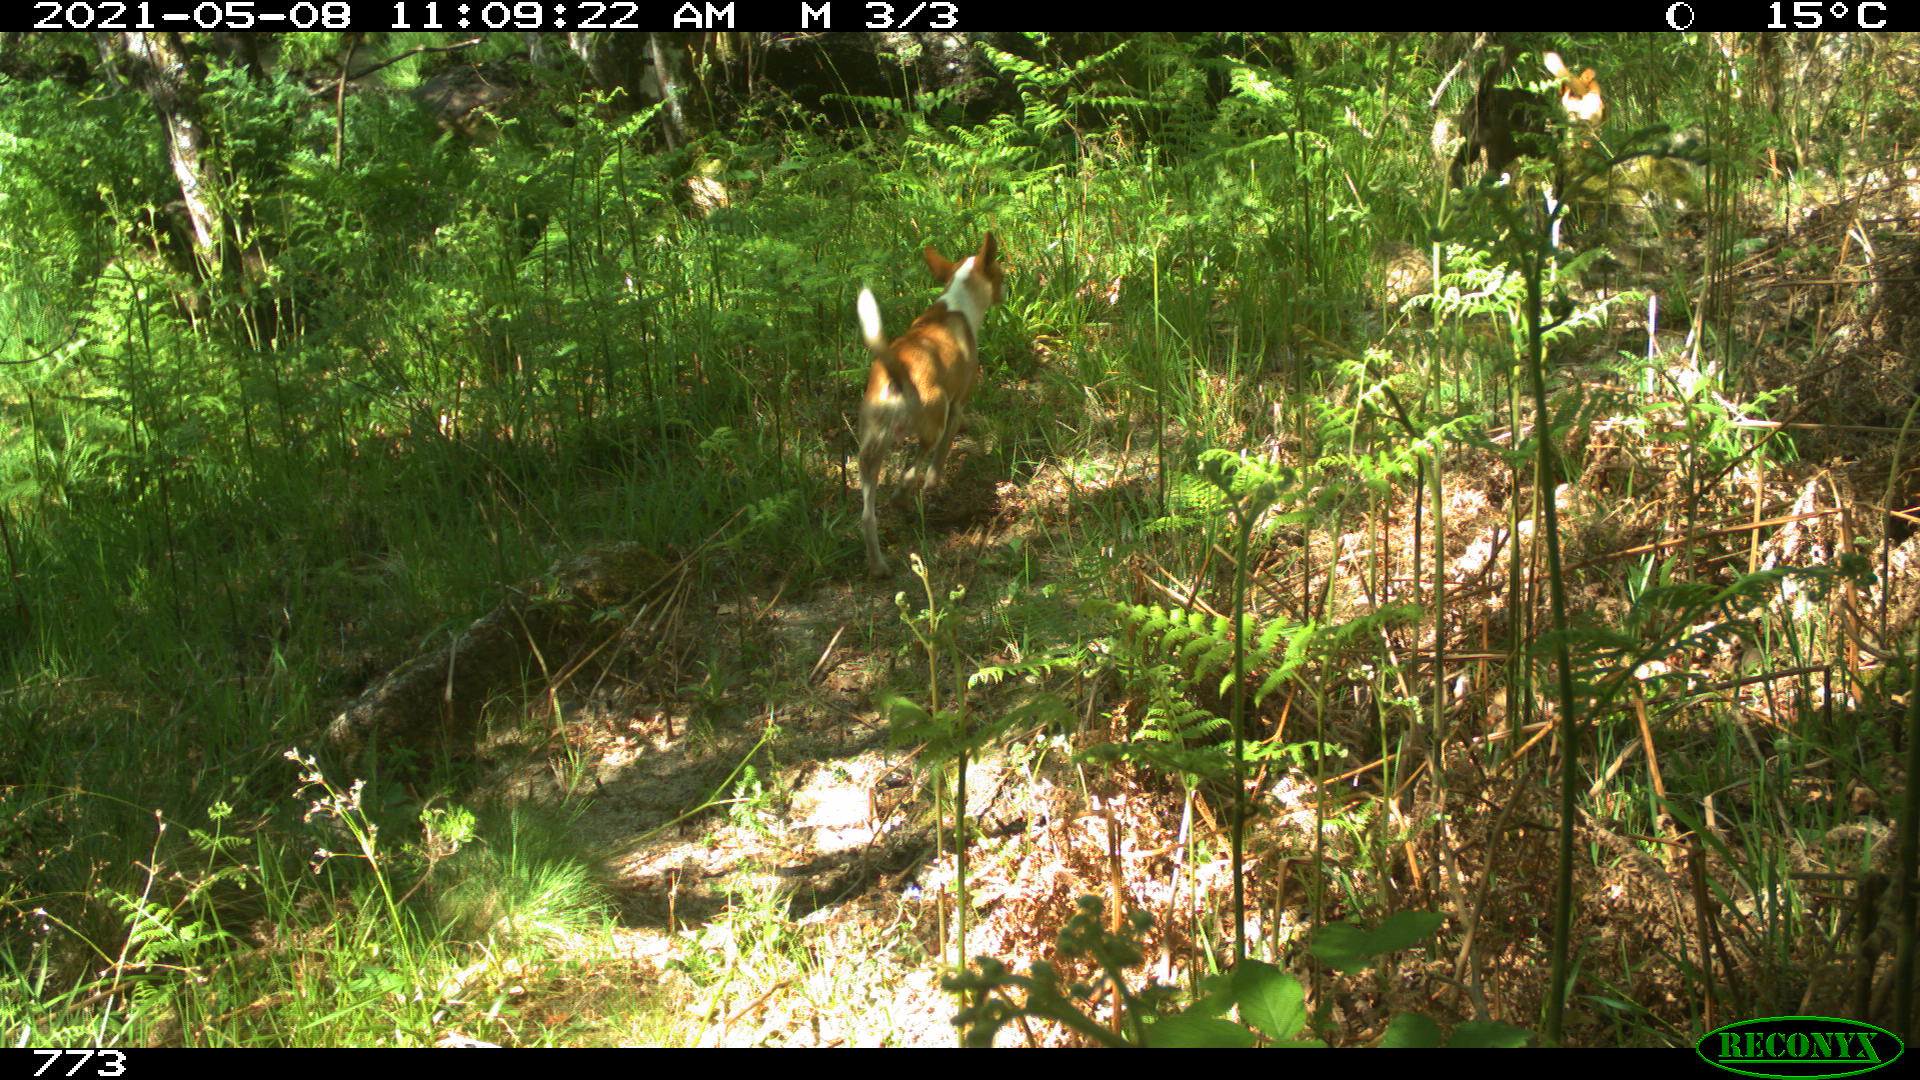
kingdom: Animalia
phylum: Chordata
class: Mammalia
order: Carnivora
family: Canidae
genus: Canis
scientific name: Canis lupus
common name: Gray wolf
